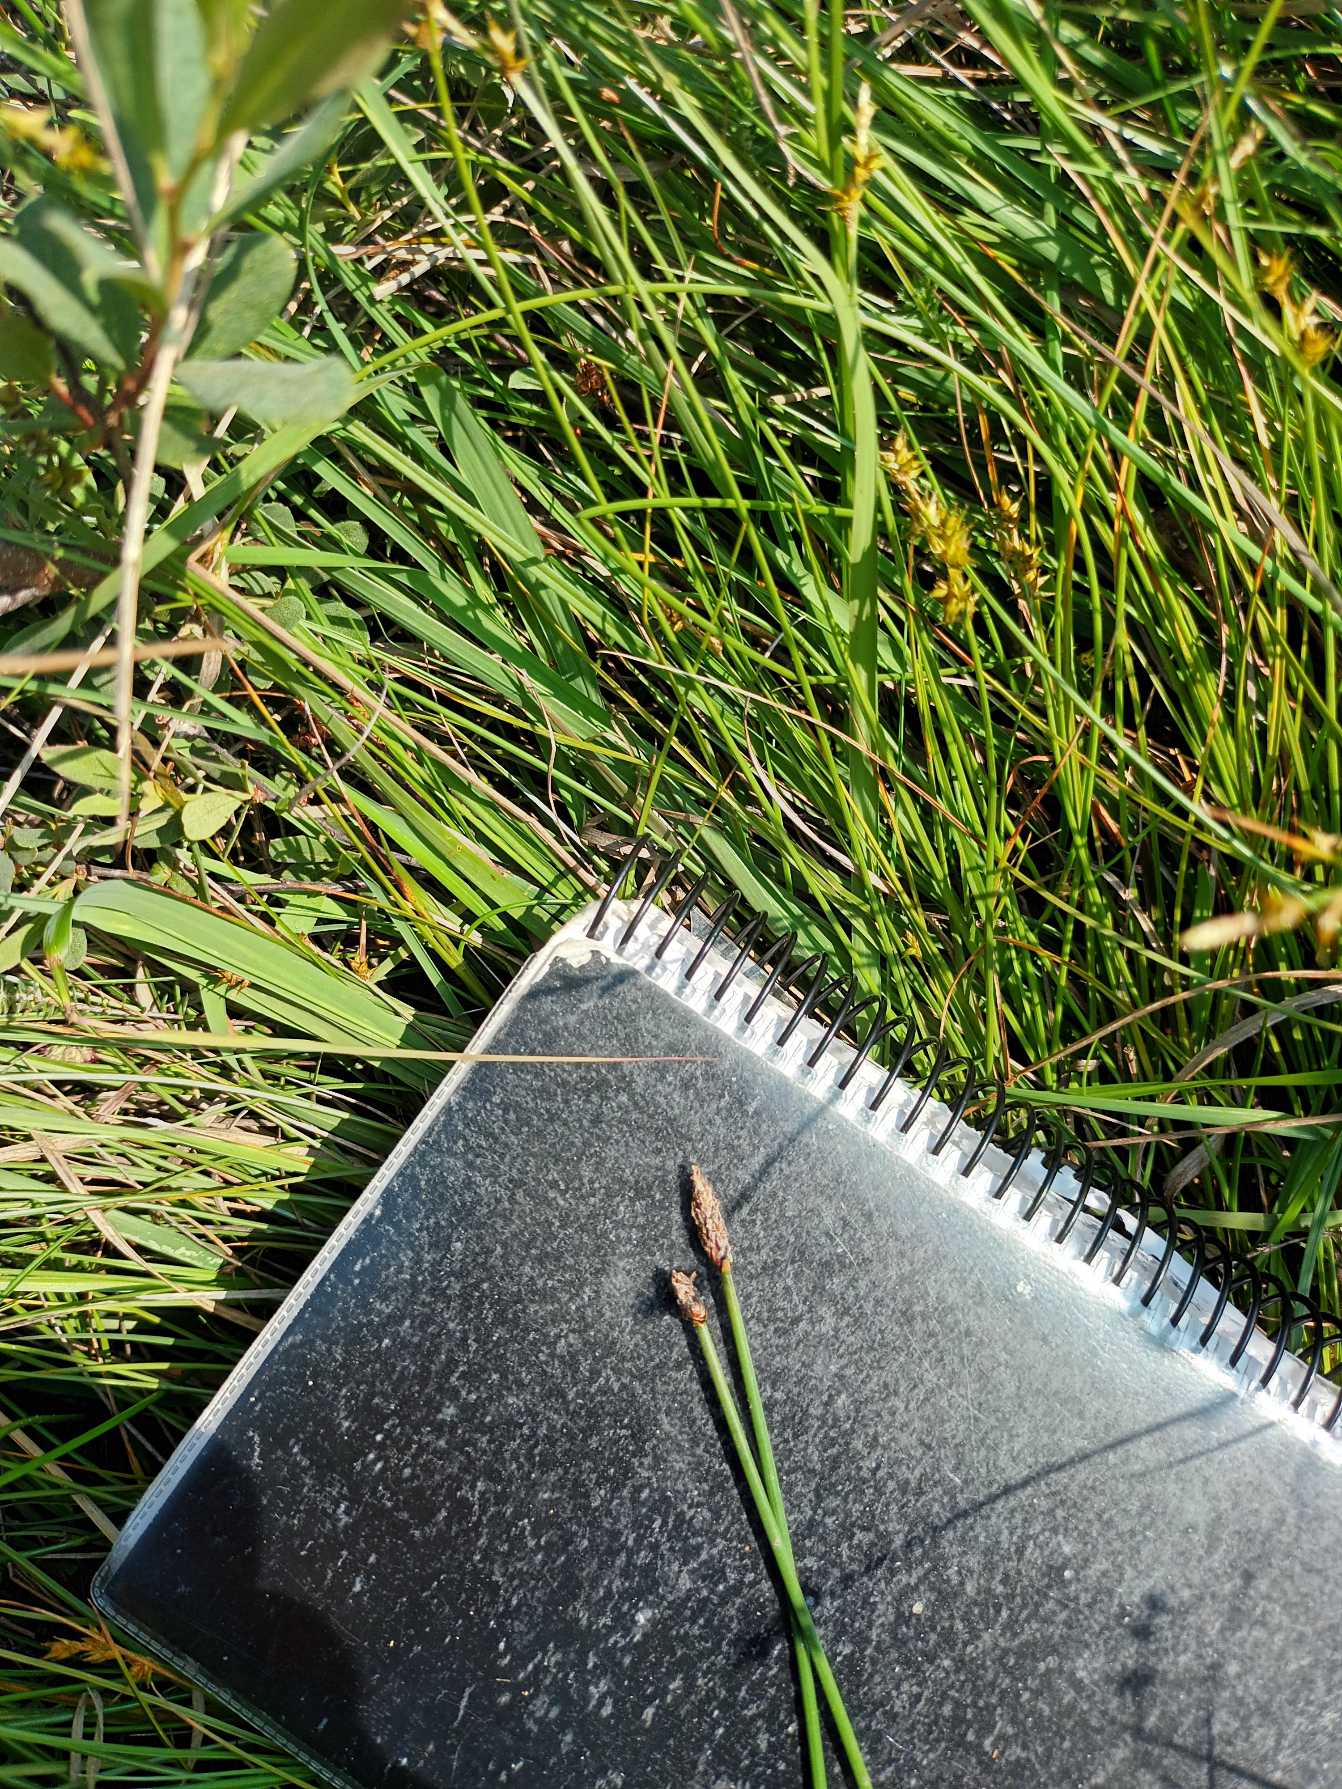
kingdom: Plantae
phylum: Tracheophyta
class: Liliopsida
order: Poales
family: Cyperaceae
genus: Eleocharis
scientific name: Eleocharis palustris
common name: Almindelig sumpstrå
